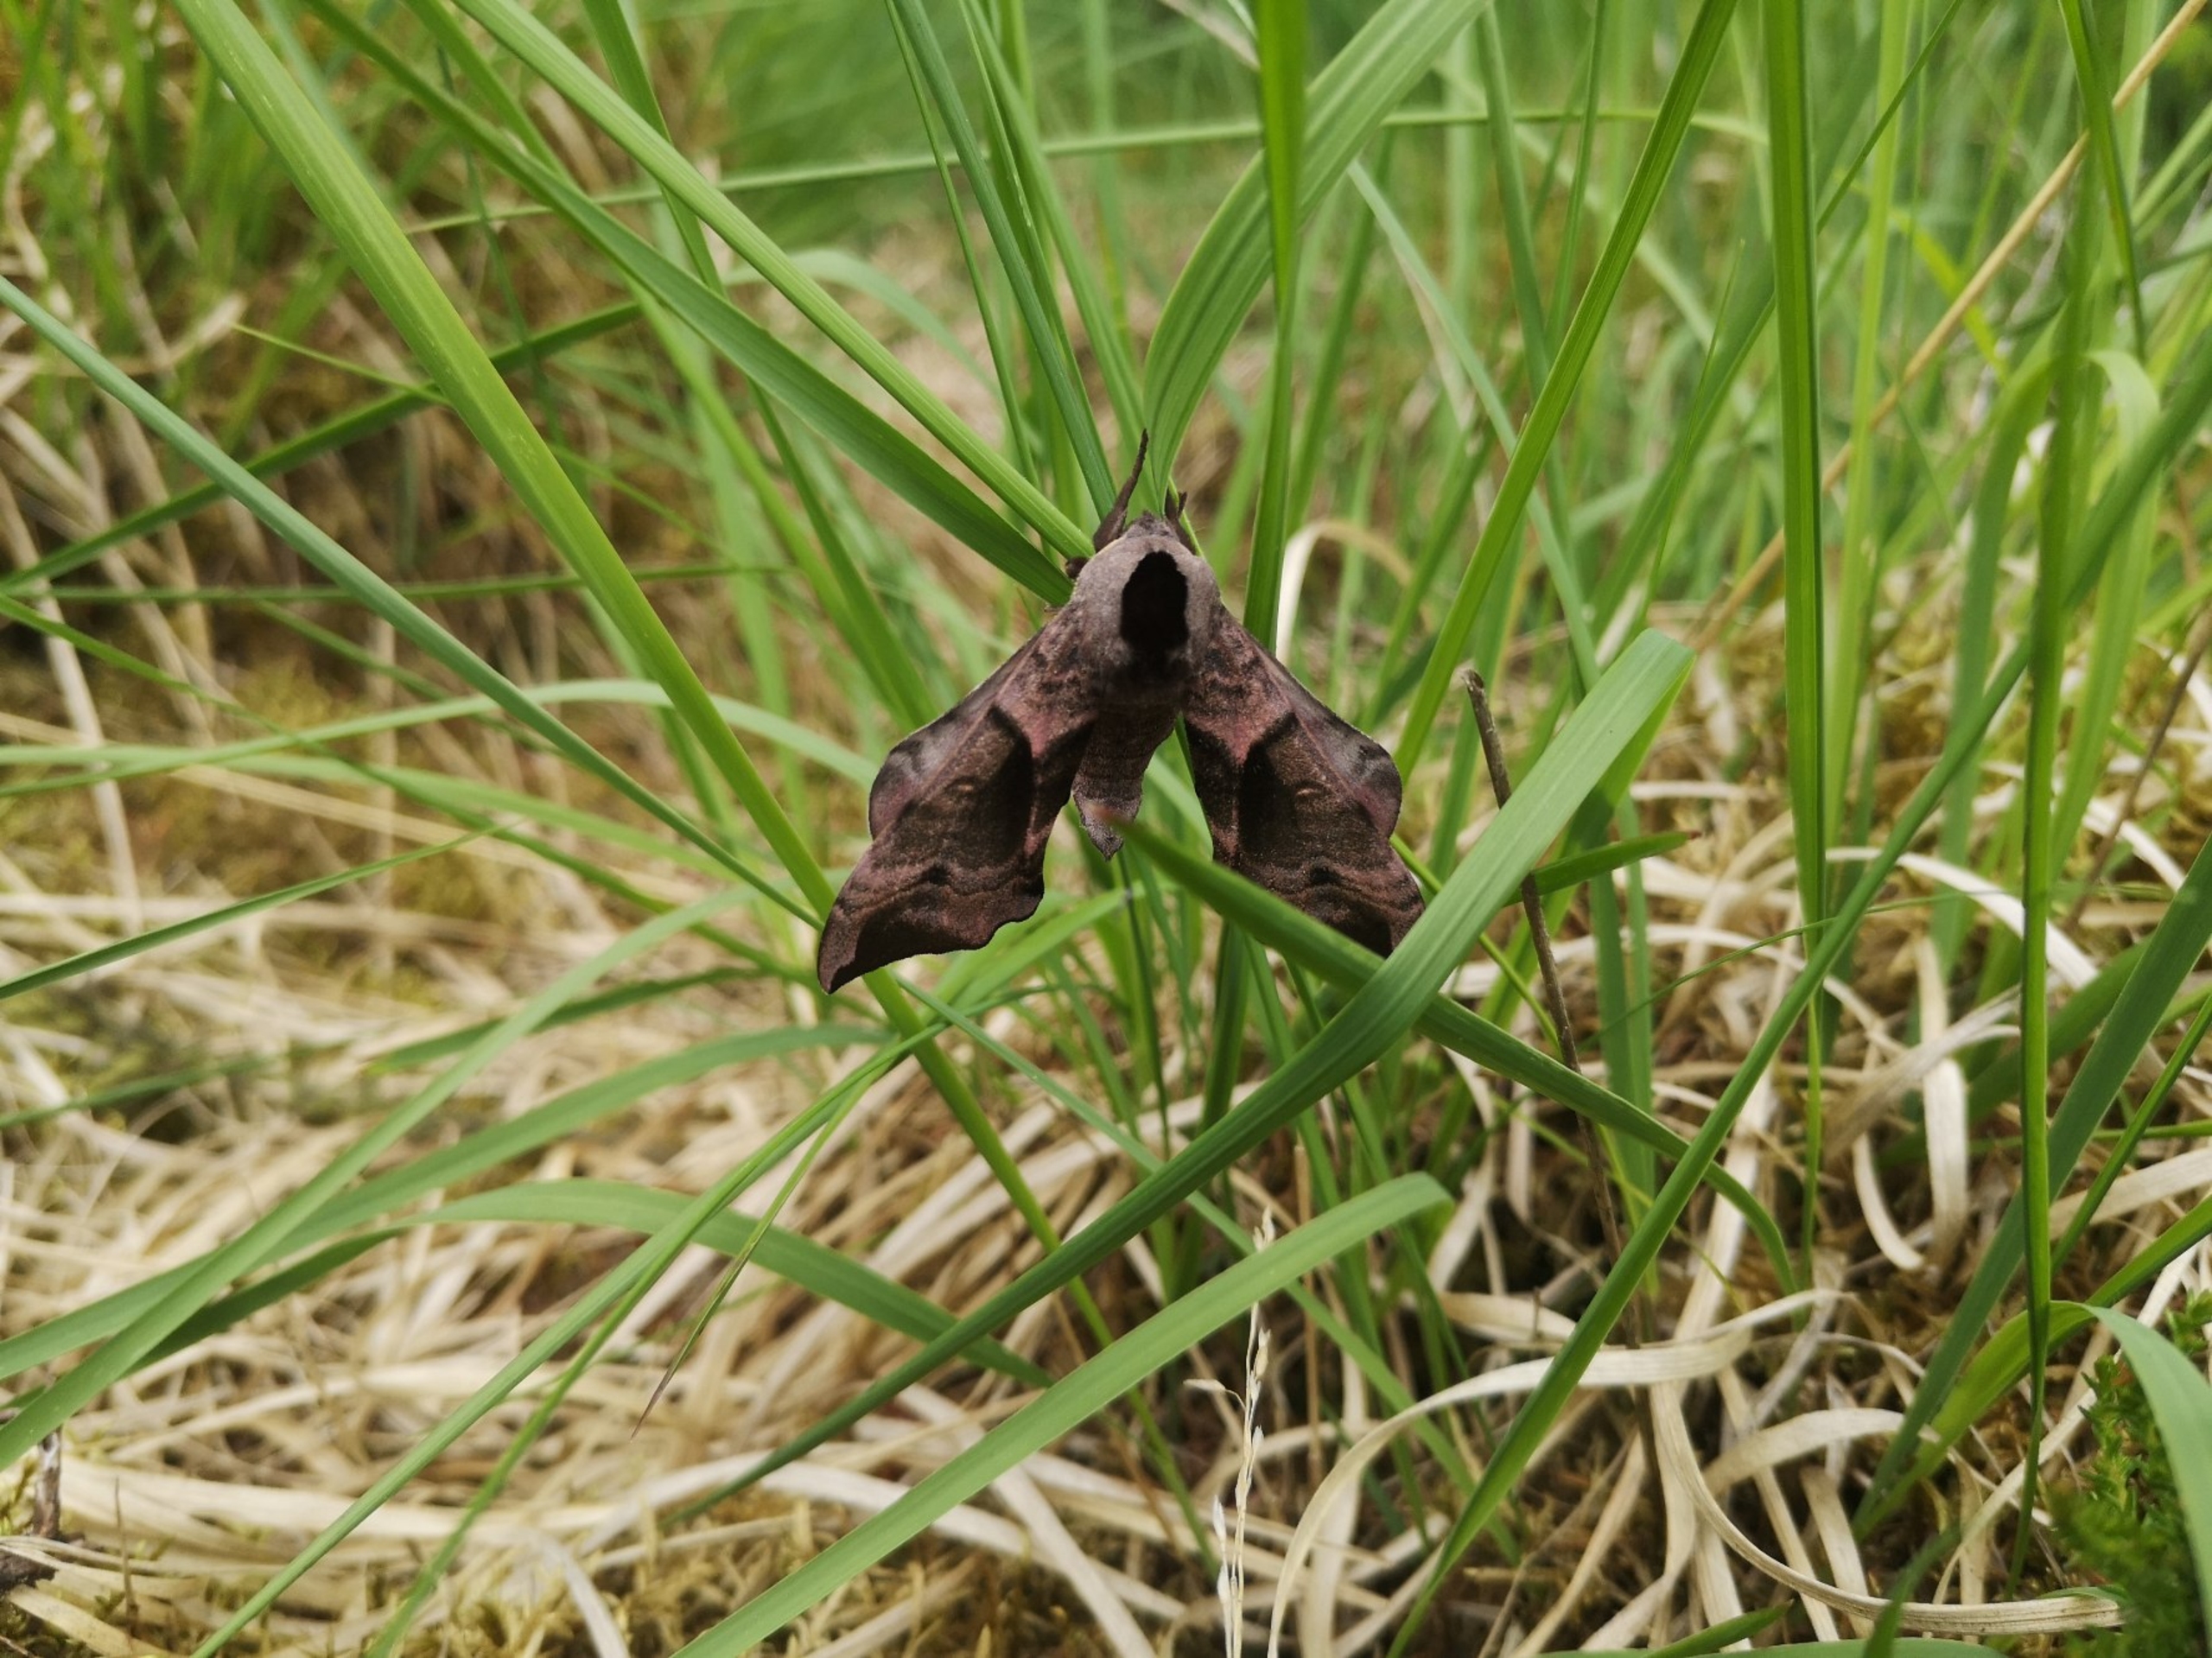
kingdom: Animalia
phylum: Arthropoda
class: Insecta
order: Lepidoptera
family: Sphingidae
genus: Smerinthus
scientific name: Smerinthus ocellata
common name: Aftenpåfugleøje
